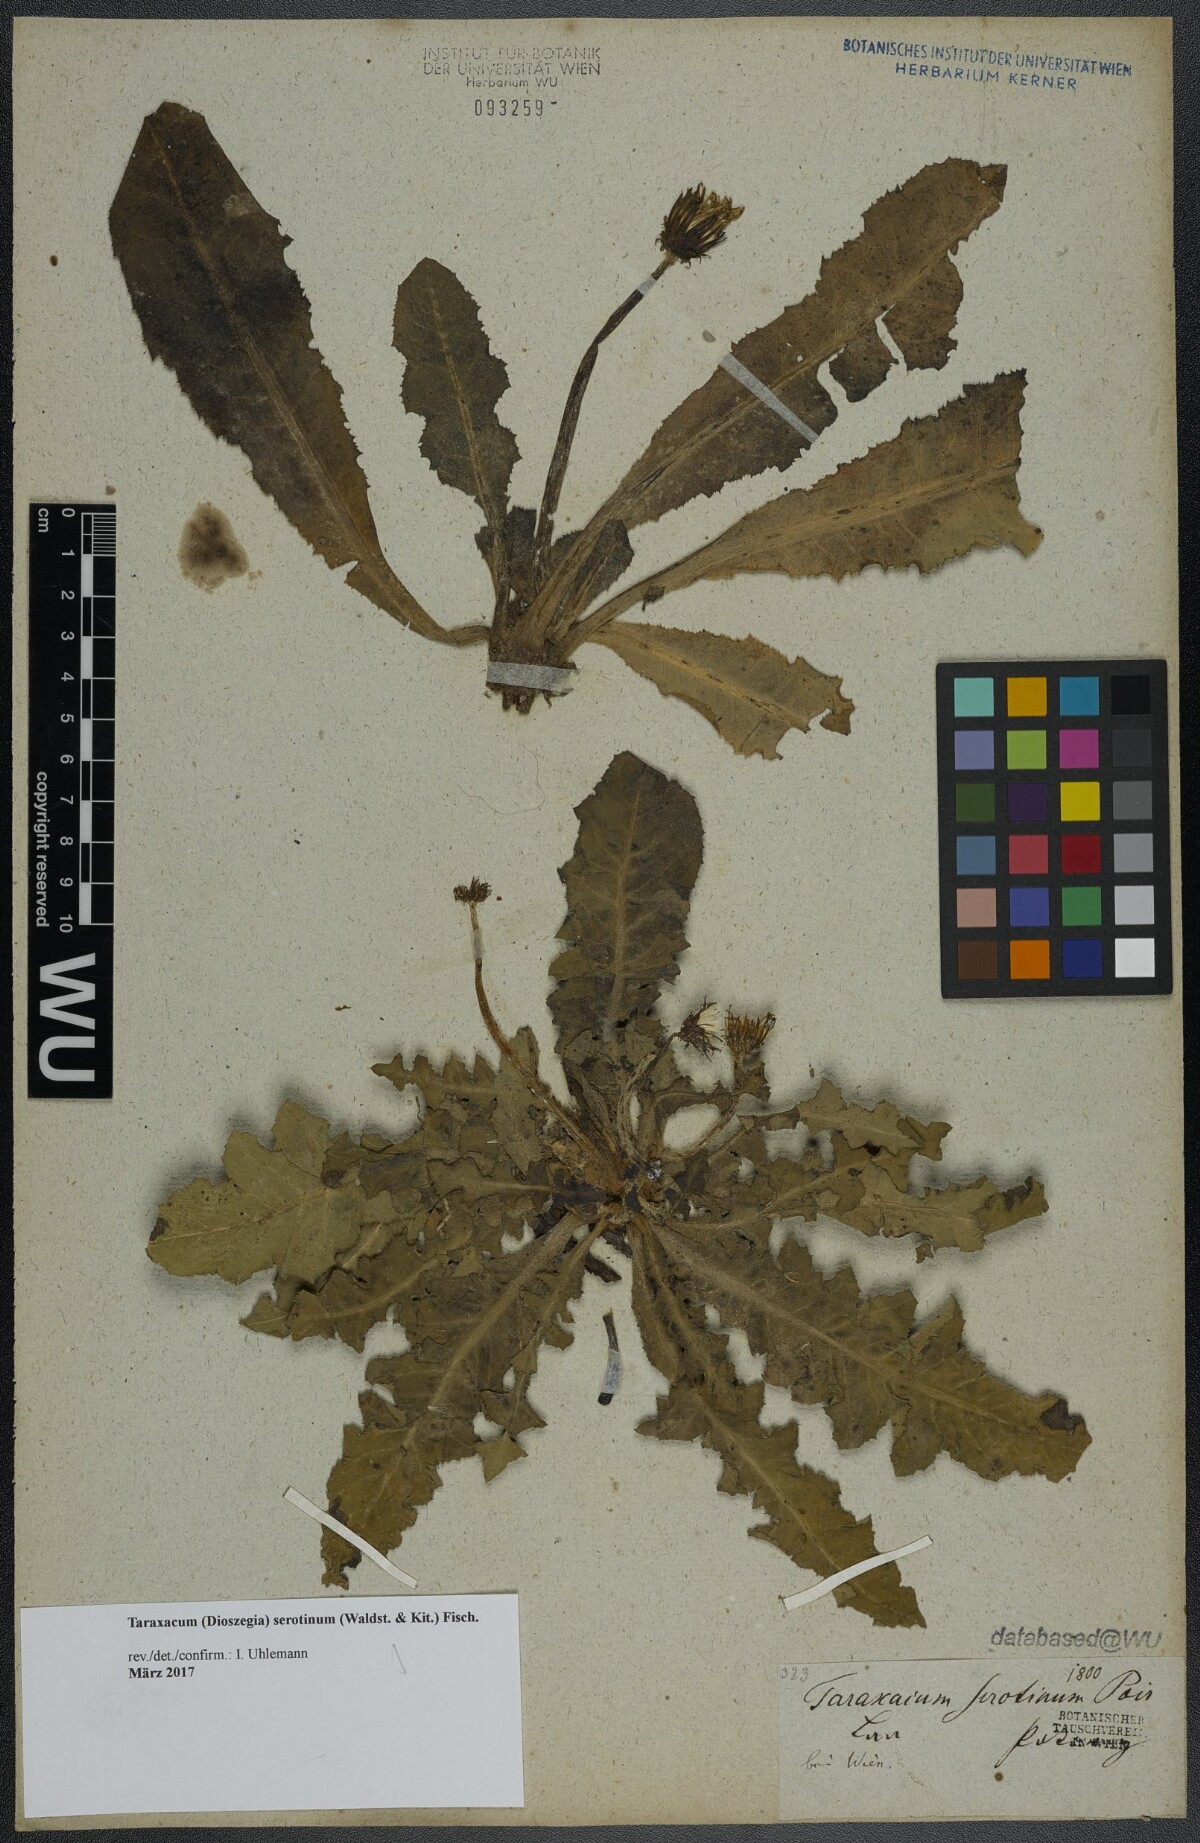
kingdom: Plantae
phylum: Tracheophyta
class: Magnoliopsida
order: Asterales
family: Asteraceae
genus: Taraxacum
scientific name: Taraxacum serotinum
